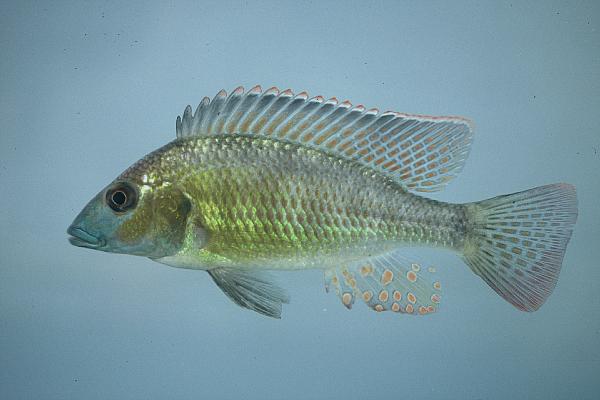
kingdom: Animalia
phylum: Chordata
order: Perciformes
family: Cichlidae
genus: Thoracochromis
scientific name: Thoracochromis buysi
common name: Namib happy
